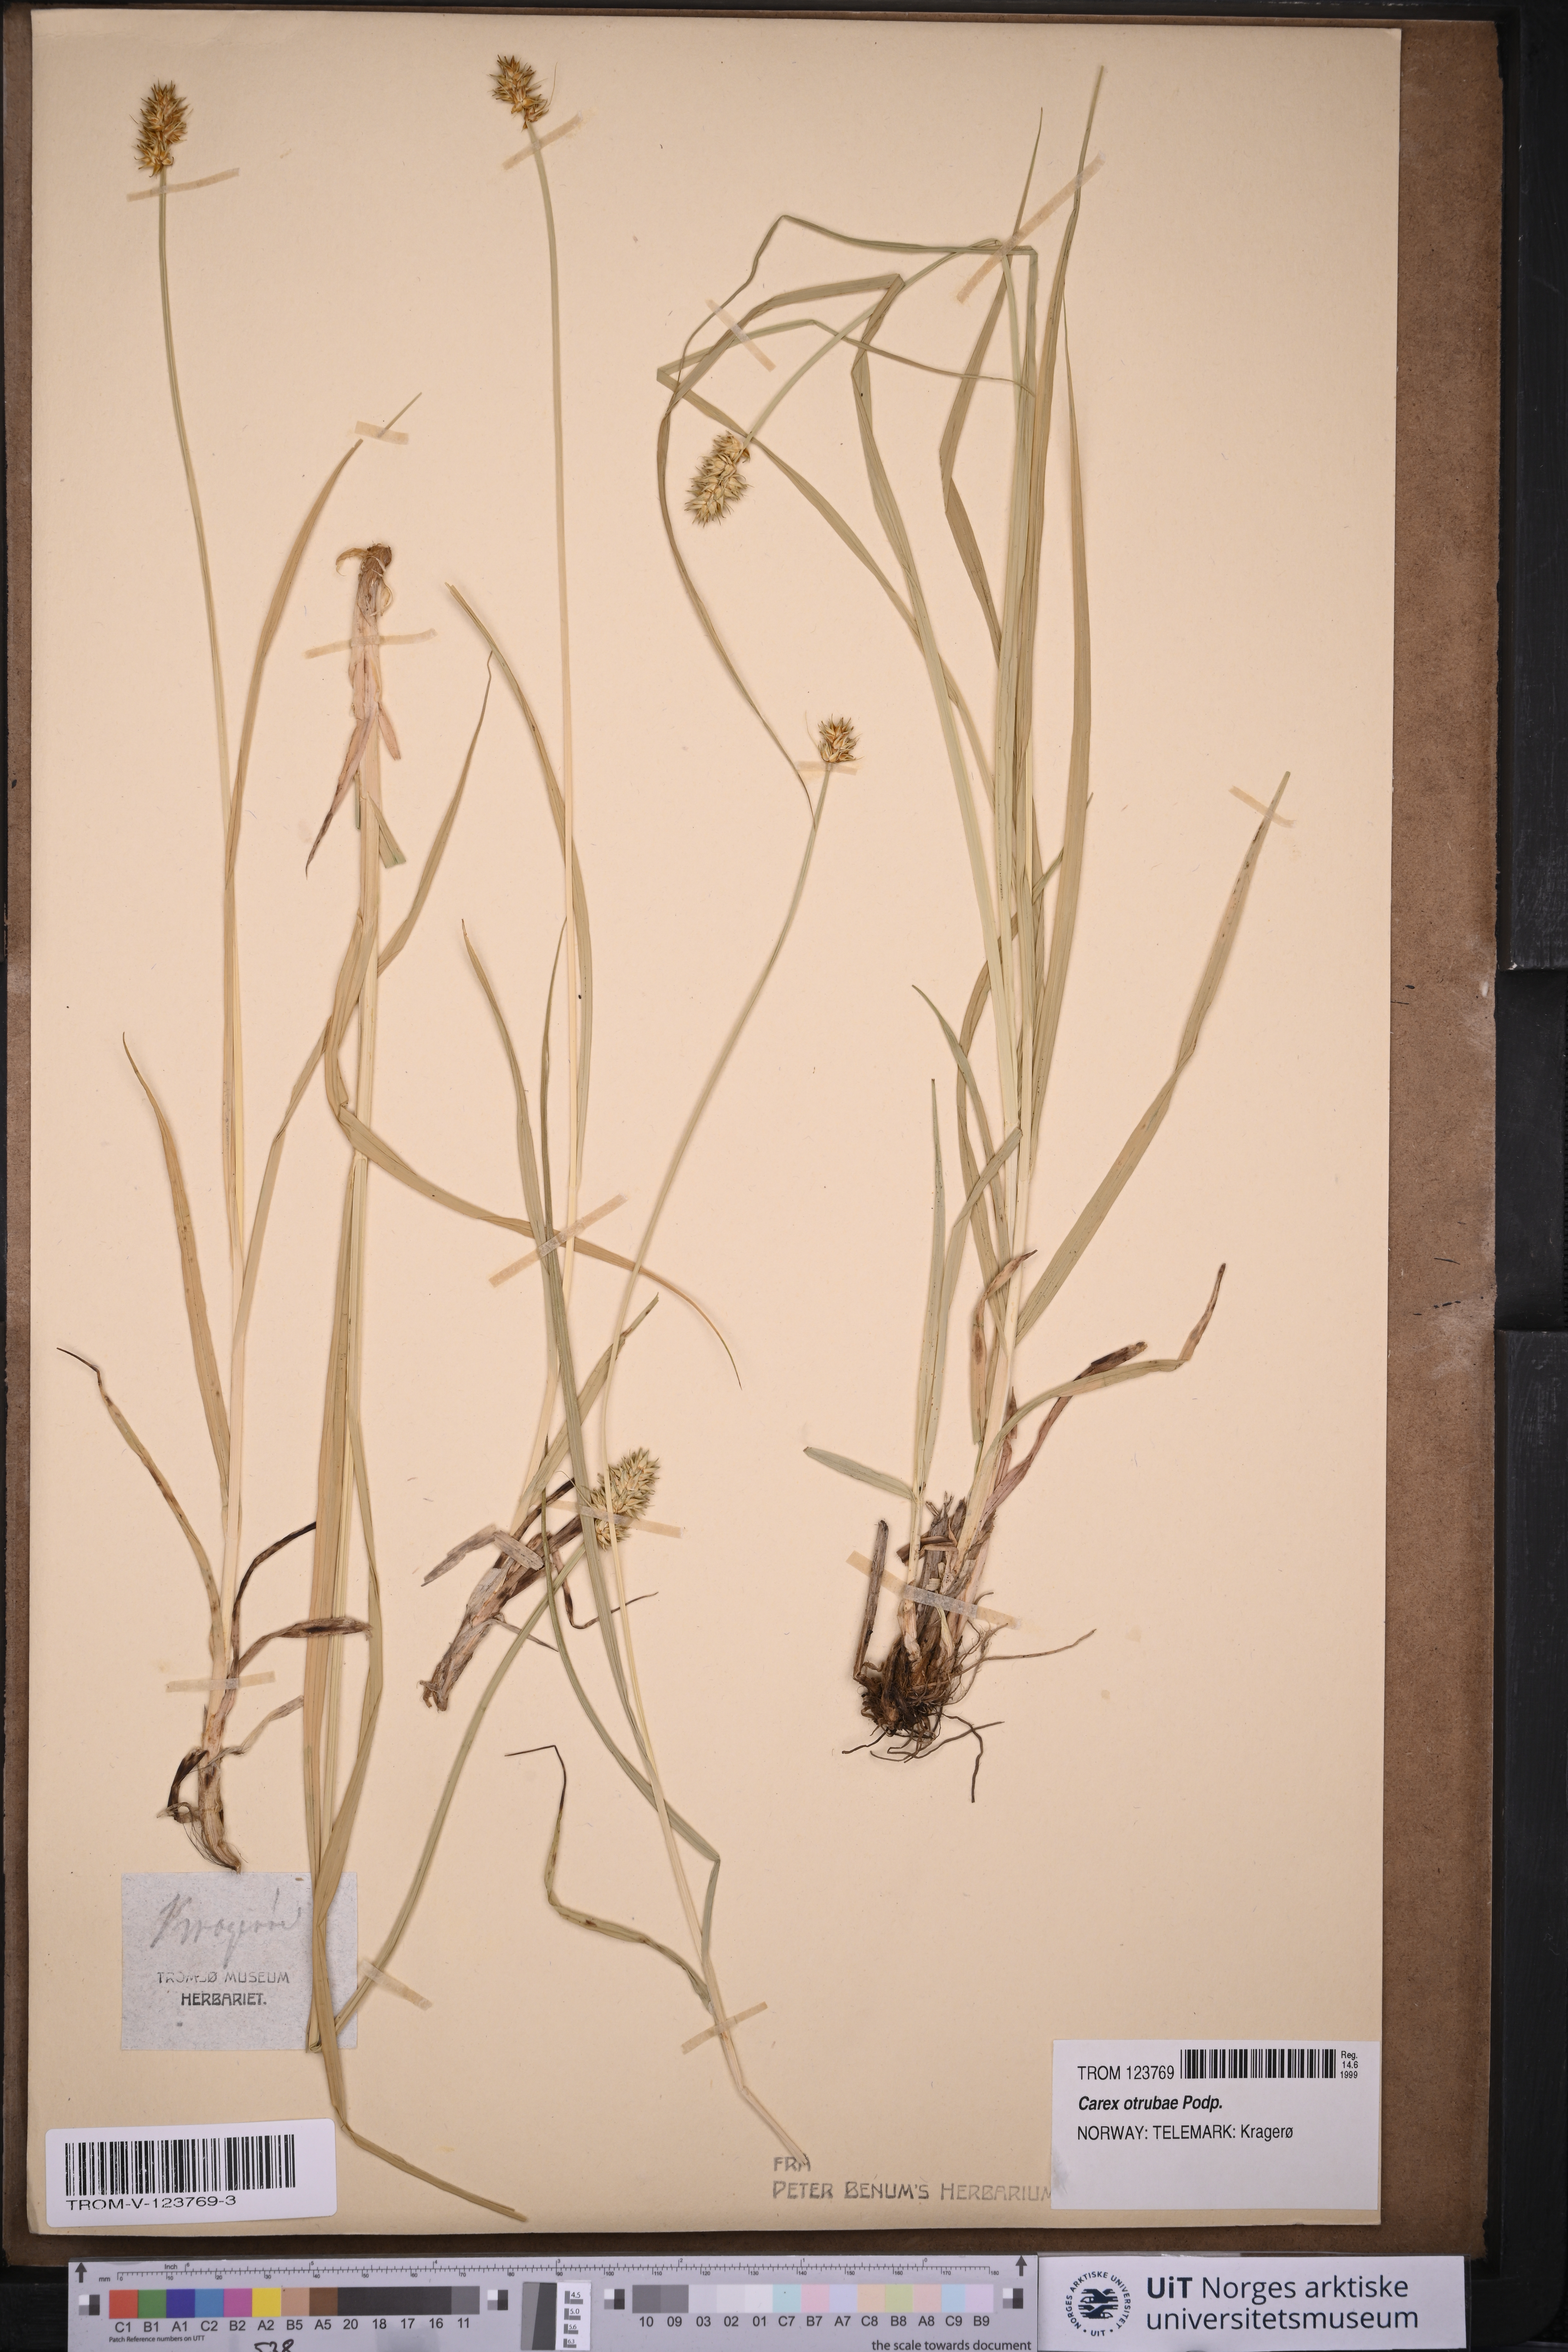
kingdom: Plantae
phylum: Tracheophyta
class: Liliopsida
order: Poales
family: Cyperaceae
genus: Carex
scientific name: Carex otrubae
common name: False fox-sedge
